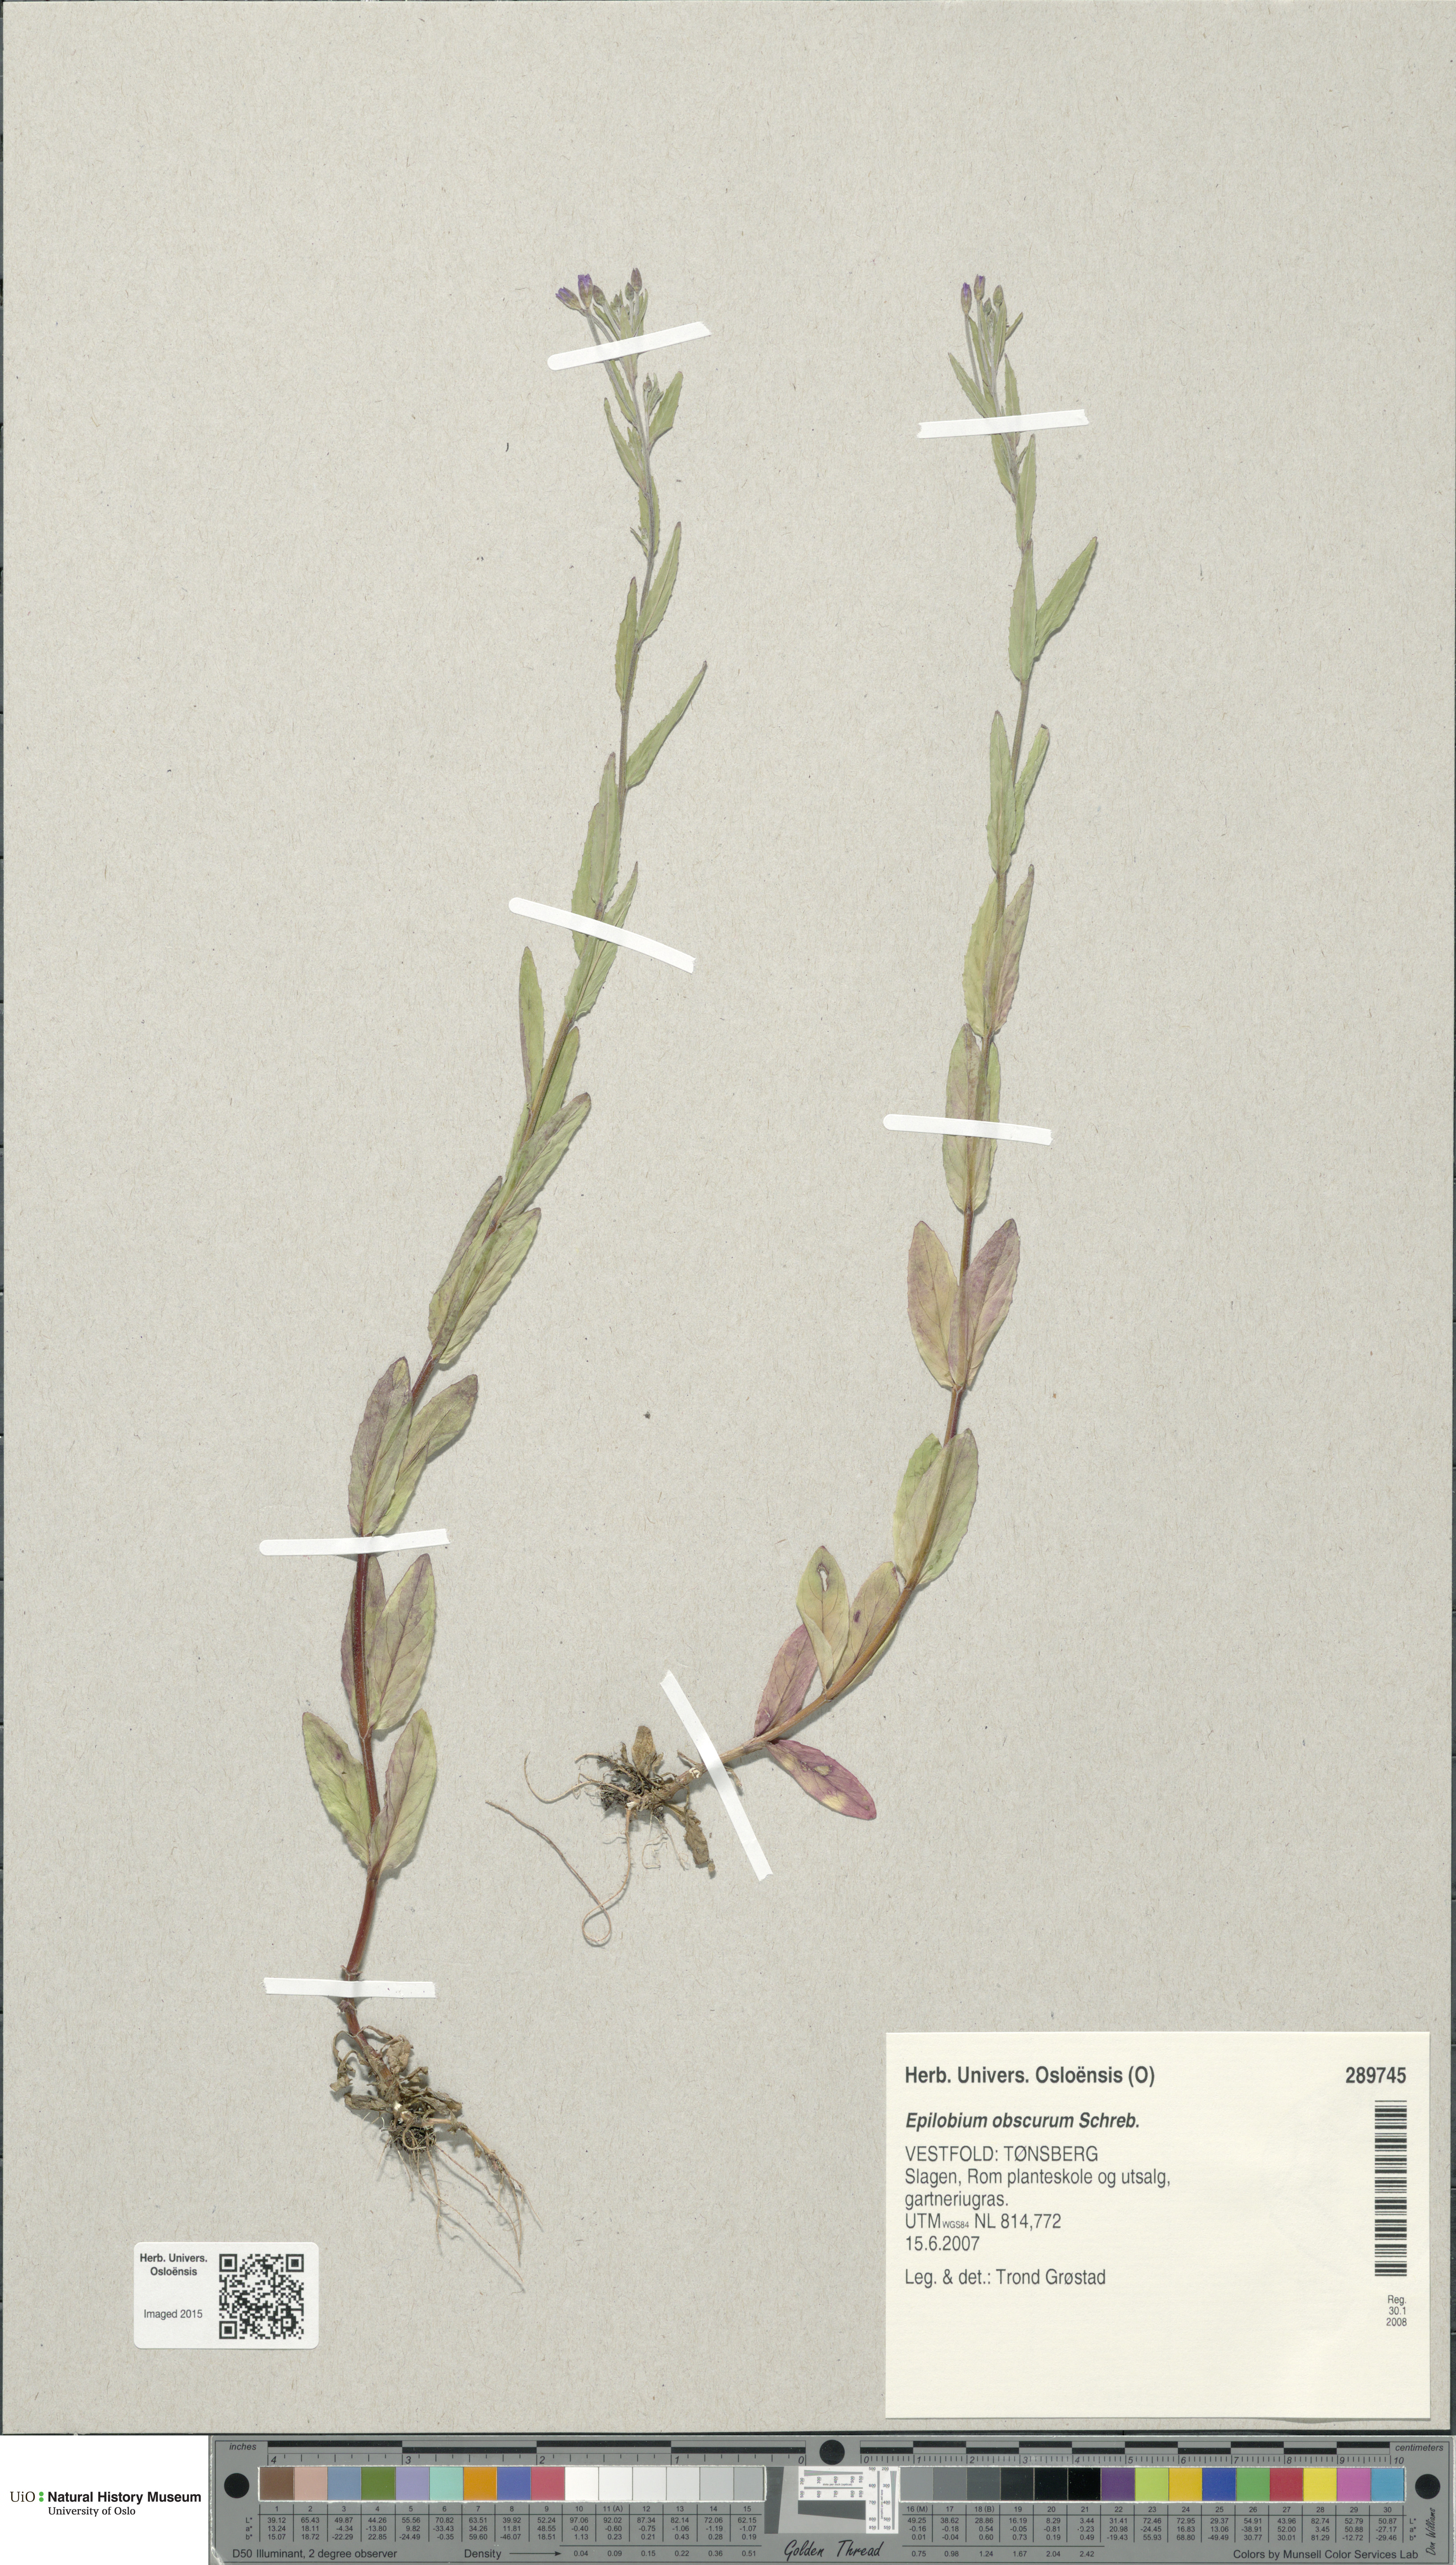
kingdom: Plantae
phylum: Tracheophyta
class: Magnoliopsida
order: Myrtales
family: Onagraceae
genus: Epilobium
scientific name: Epilobium obscurum
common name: Short-fruited willowherb
